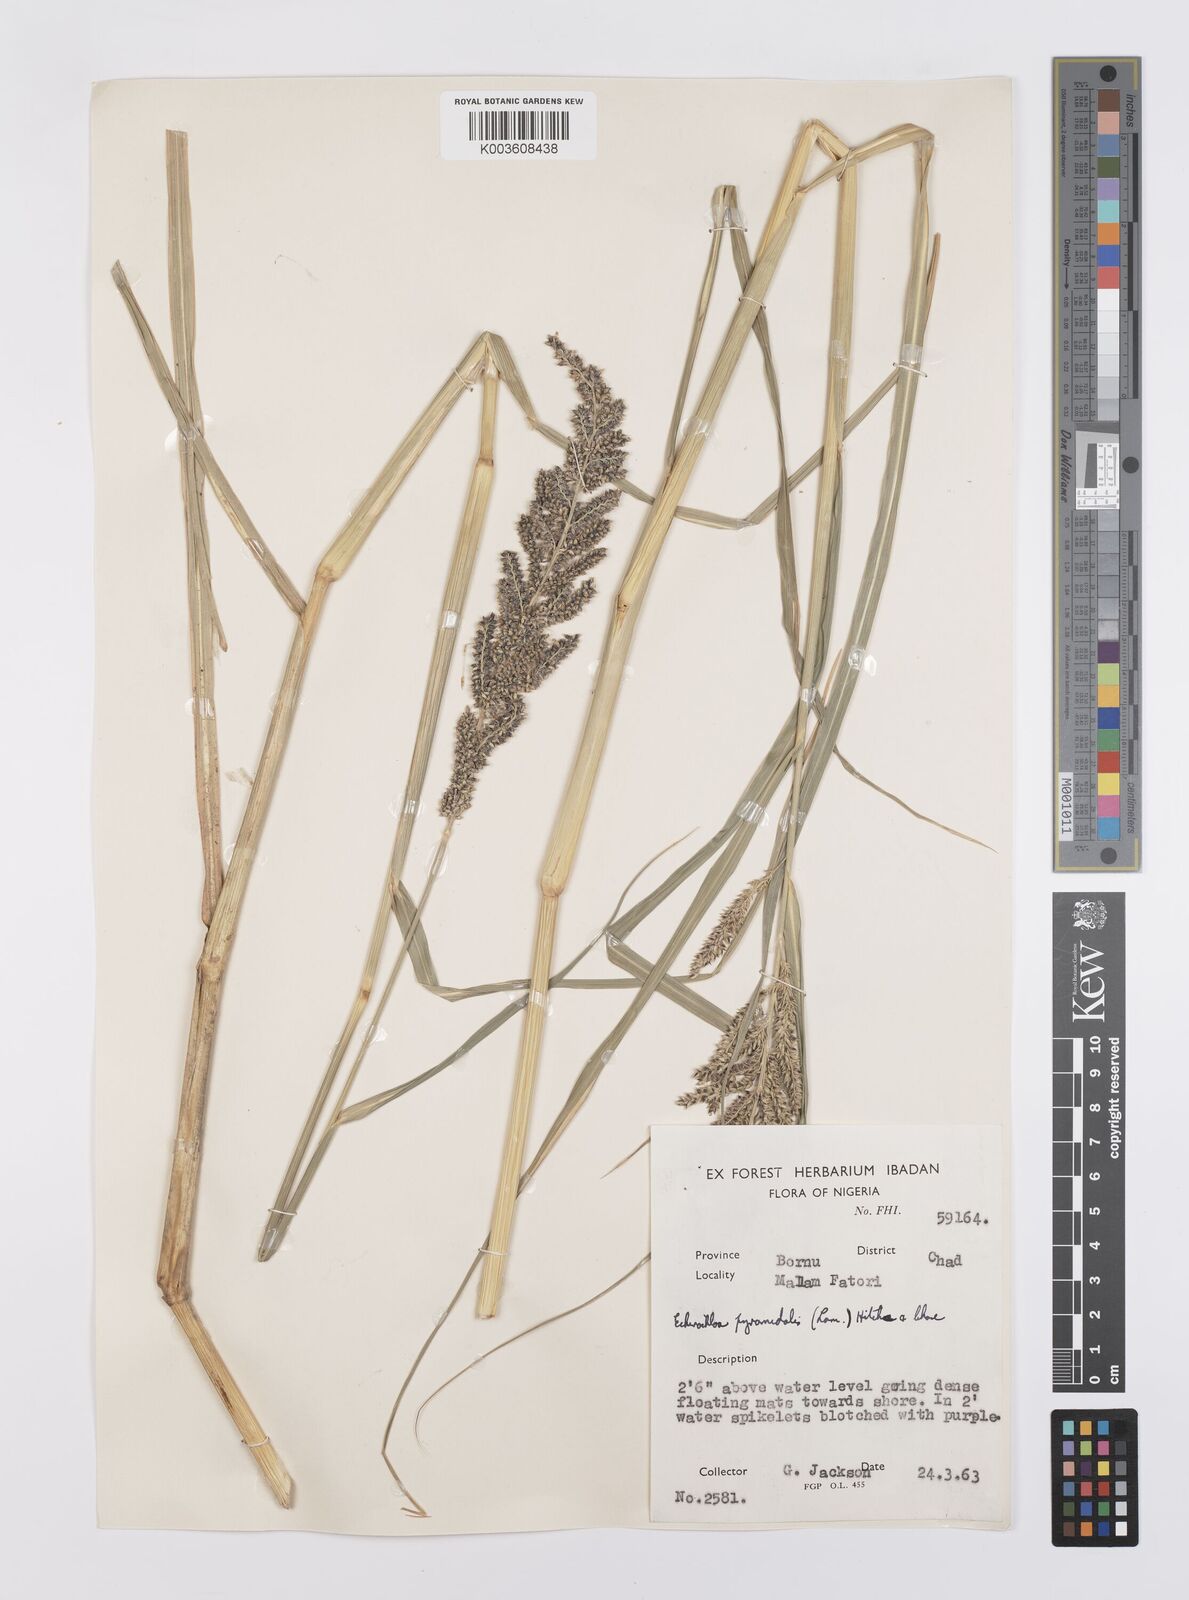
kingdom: Plantae
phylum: Tracheophyta
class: Liliopsida
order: Poales
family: Poaceae
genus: Echinochloa
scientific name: Echinochloa pyramidalis
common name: Antelope grass
